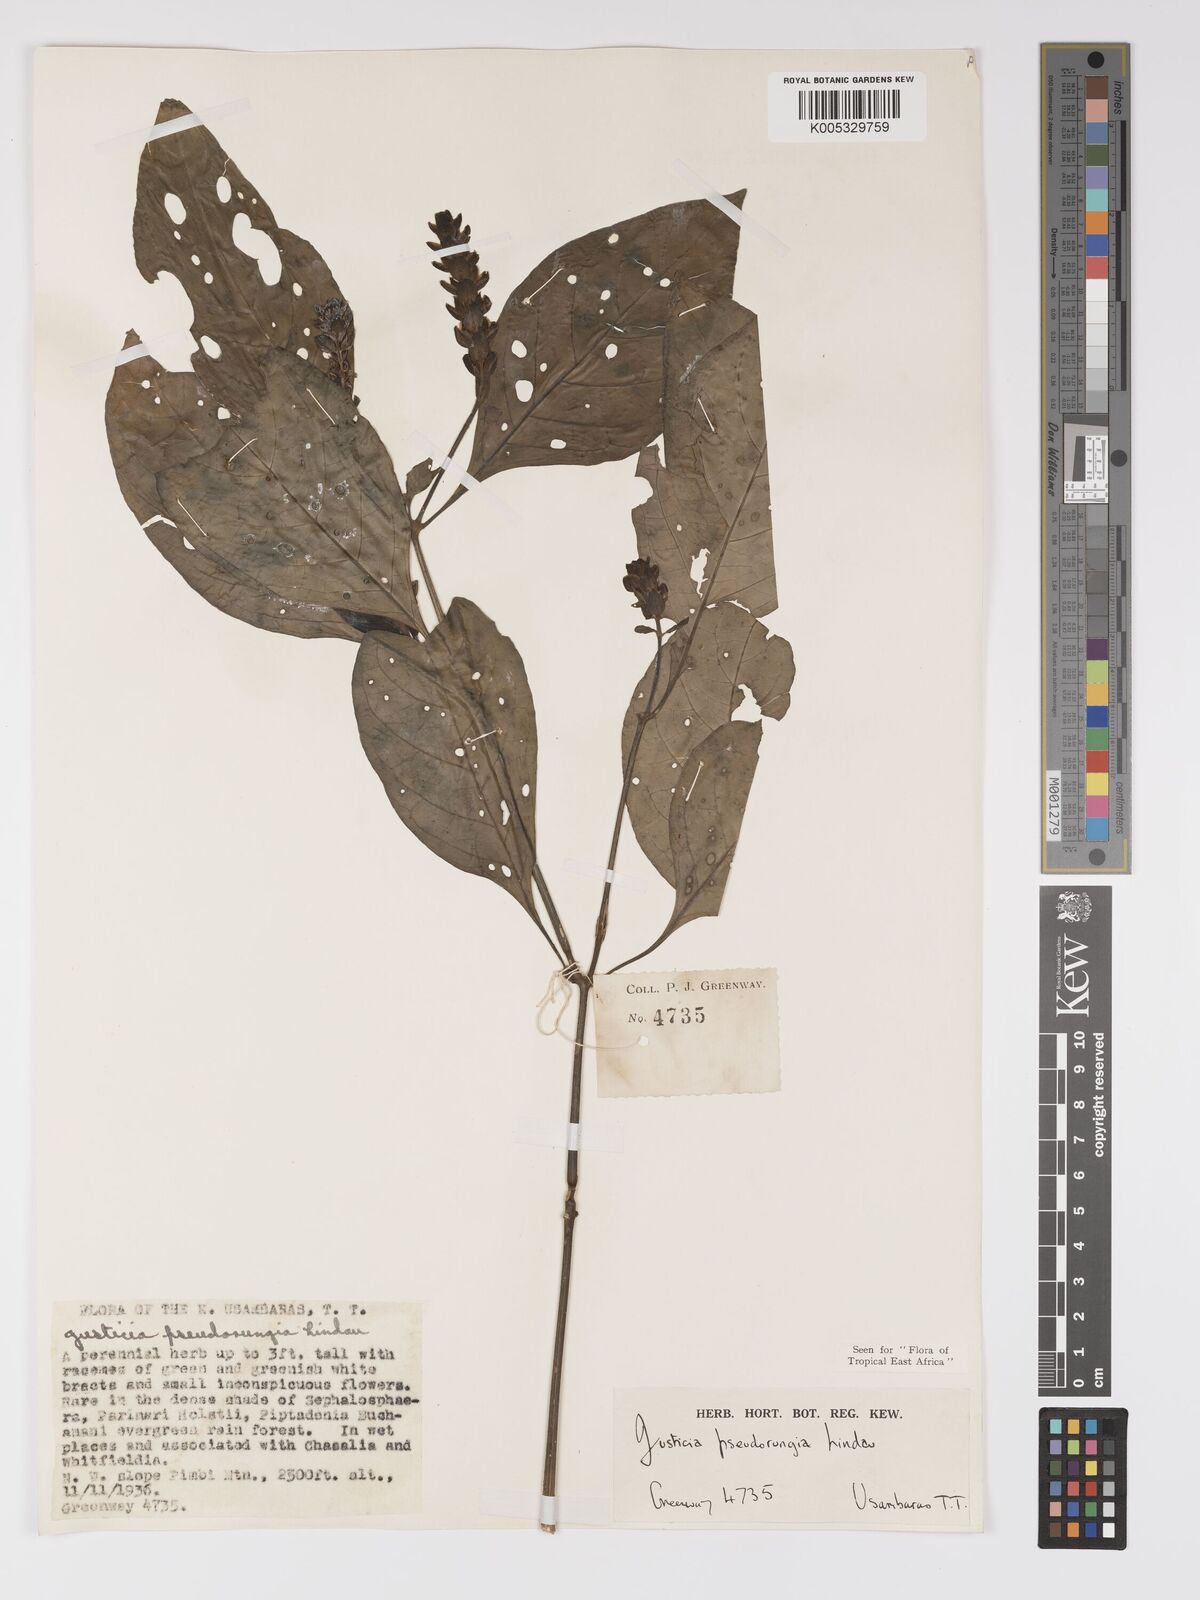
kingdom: Plantae
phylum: Tracheophyta
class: Magnoliopsida
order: Lamiales
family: Acanthaceae
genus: Justicia
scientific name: Justicia pseudorungia
